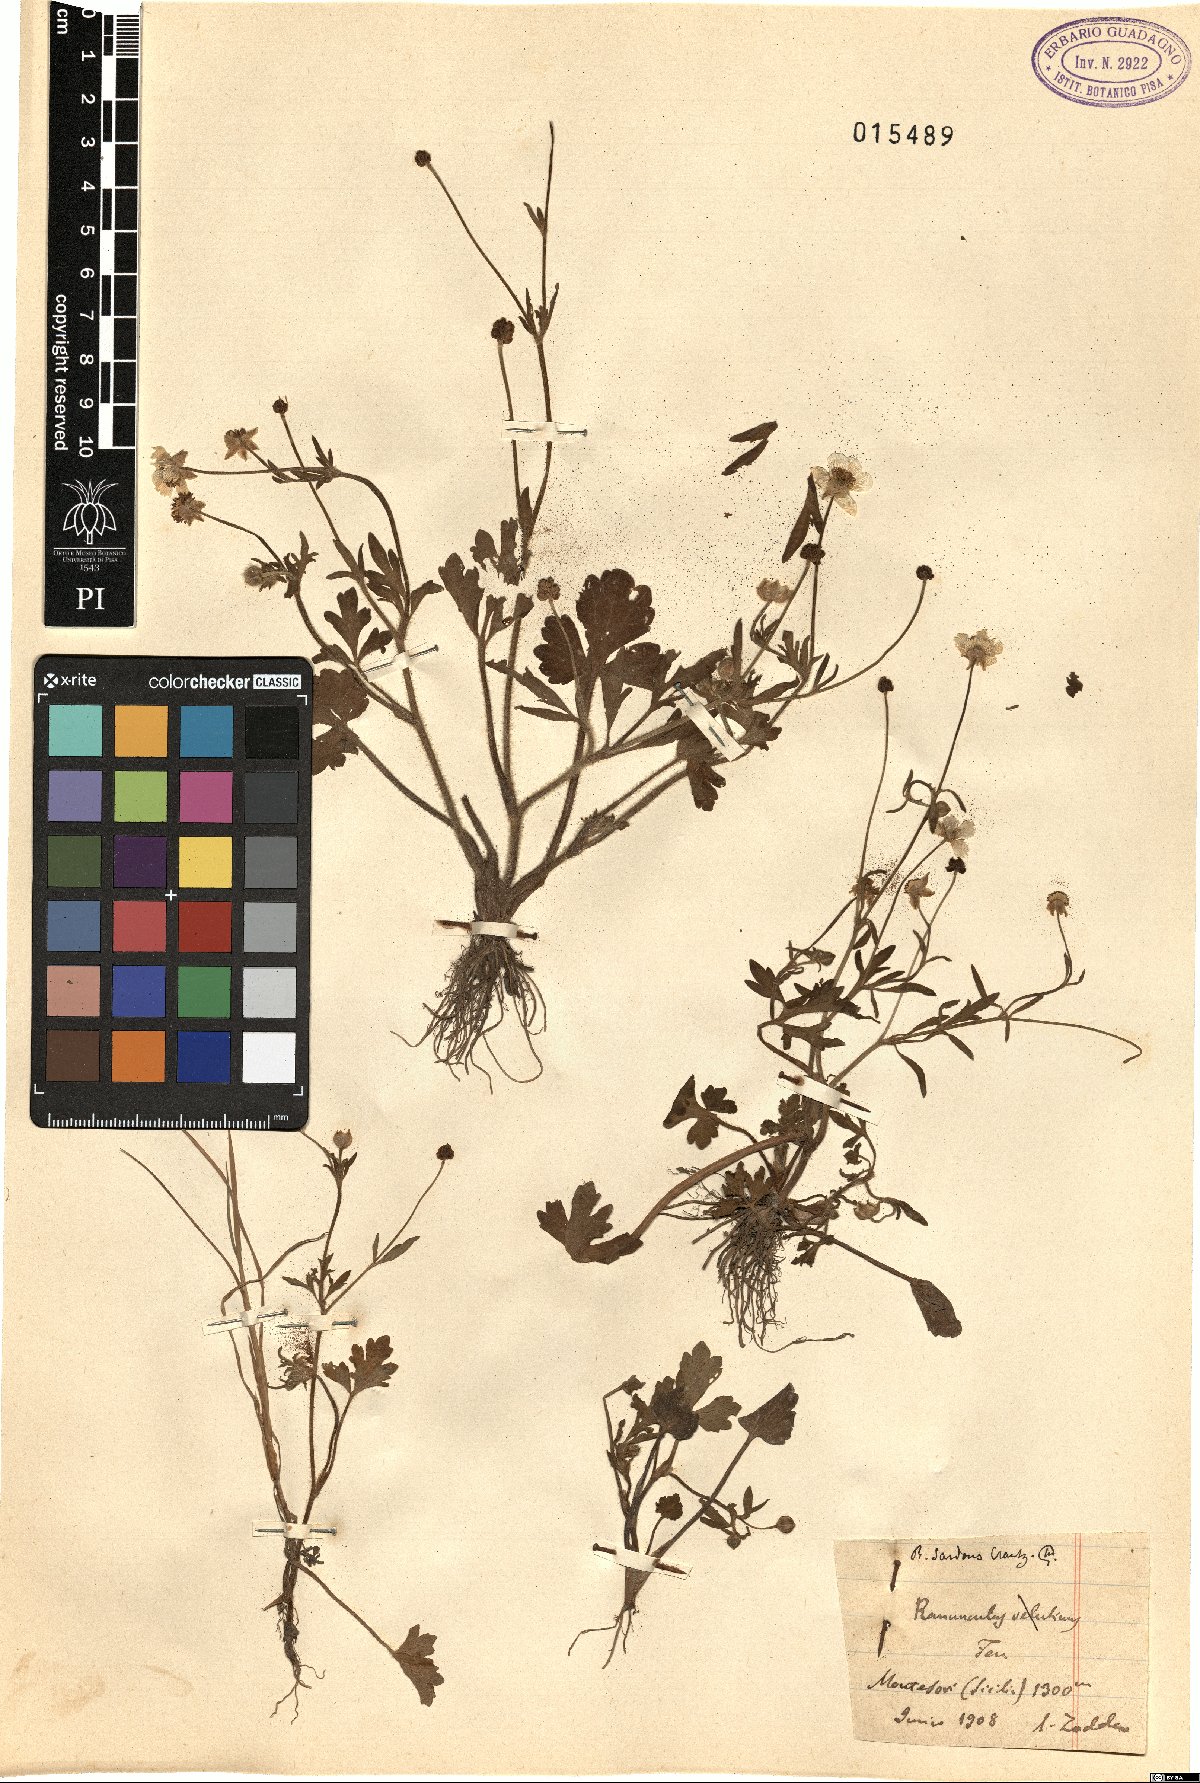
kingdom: Plantae
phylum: Tracheophyta
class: Magnoliopsida
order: Ranunculales
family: Ranunculaceae
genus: Ranunculus
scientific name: Ranunculus sardous
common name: Hairy buttercup
